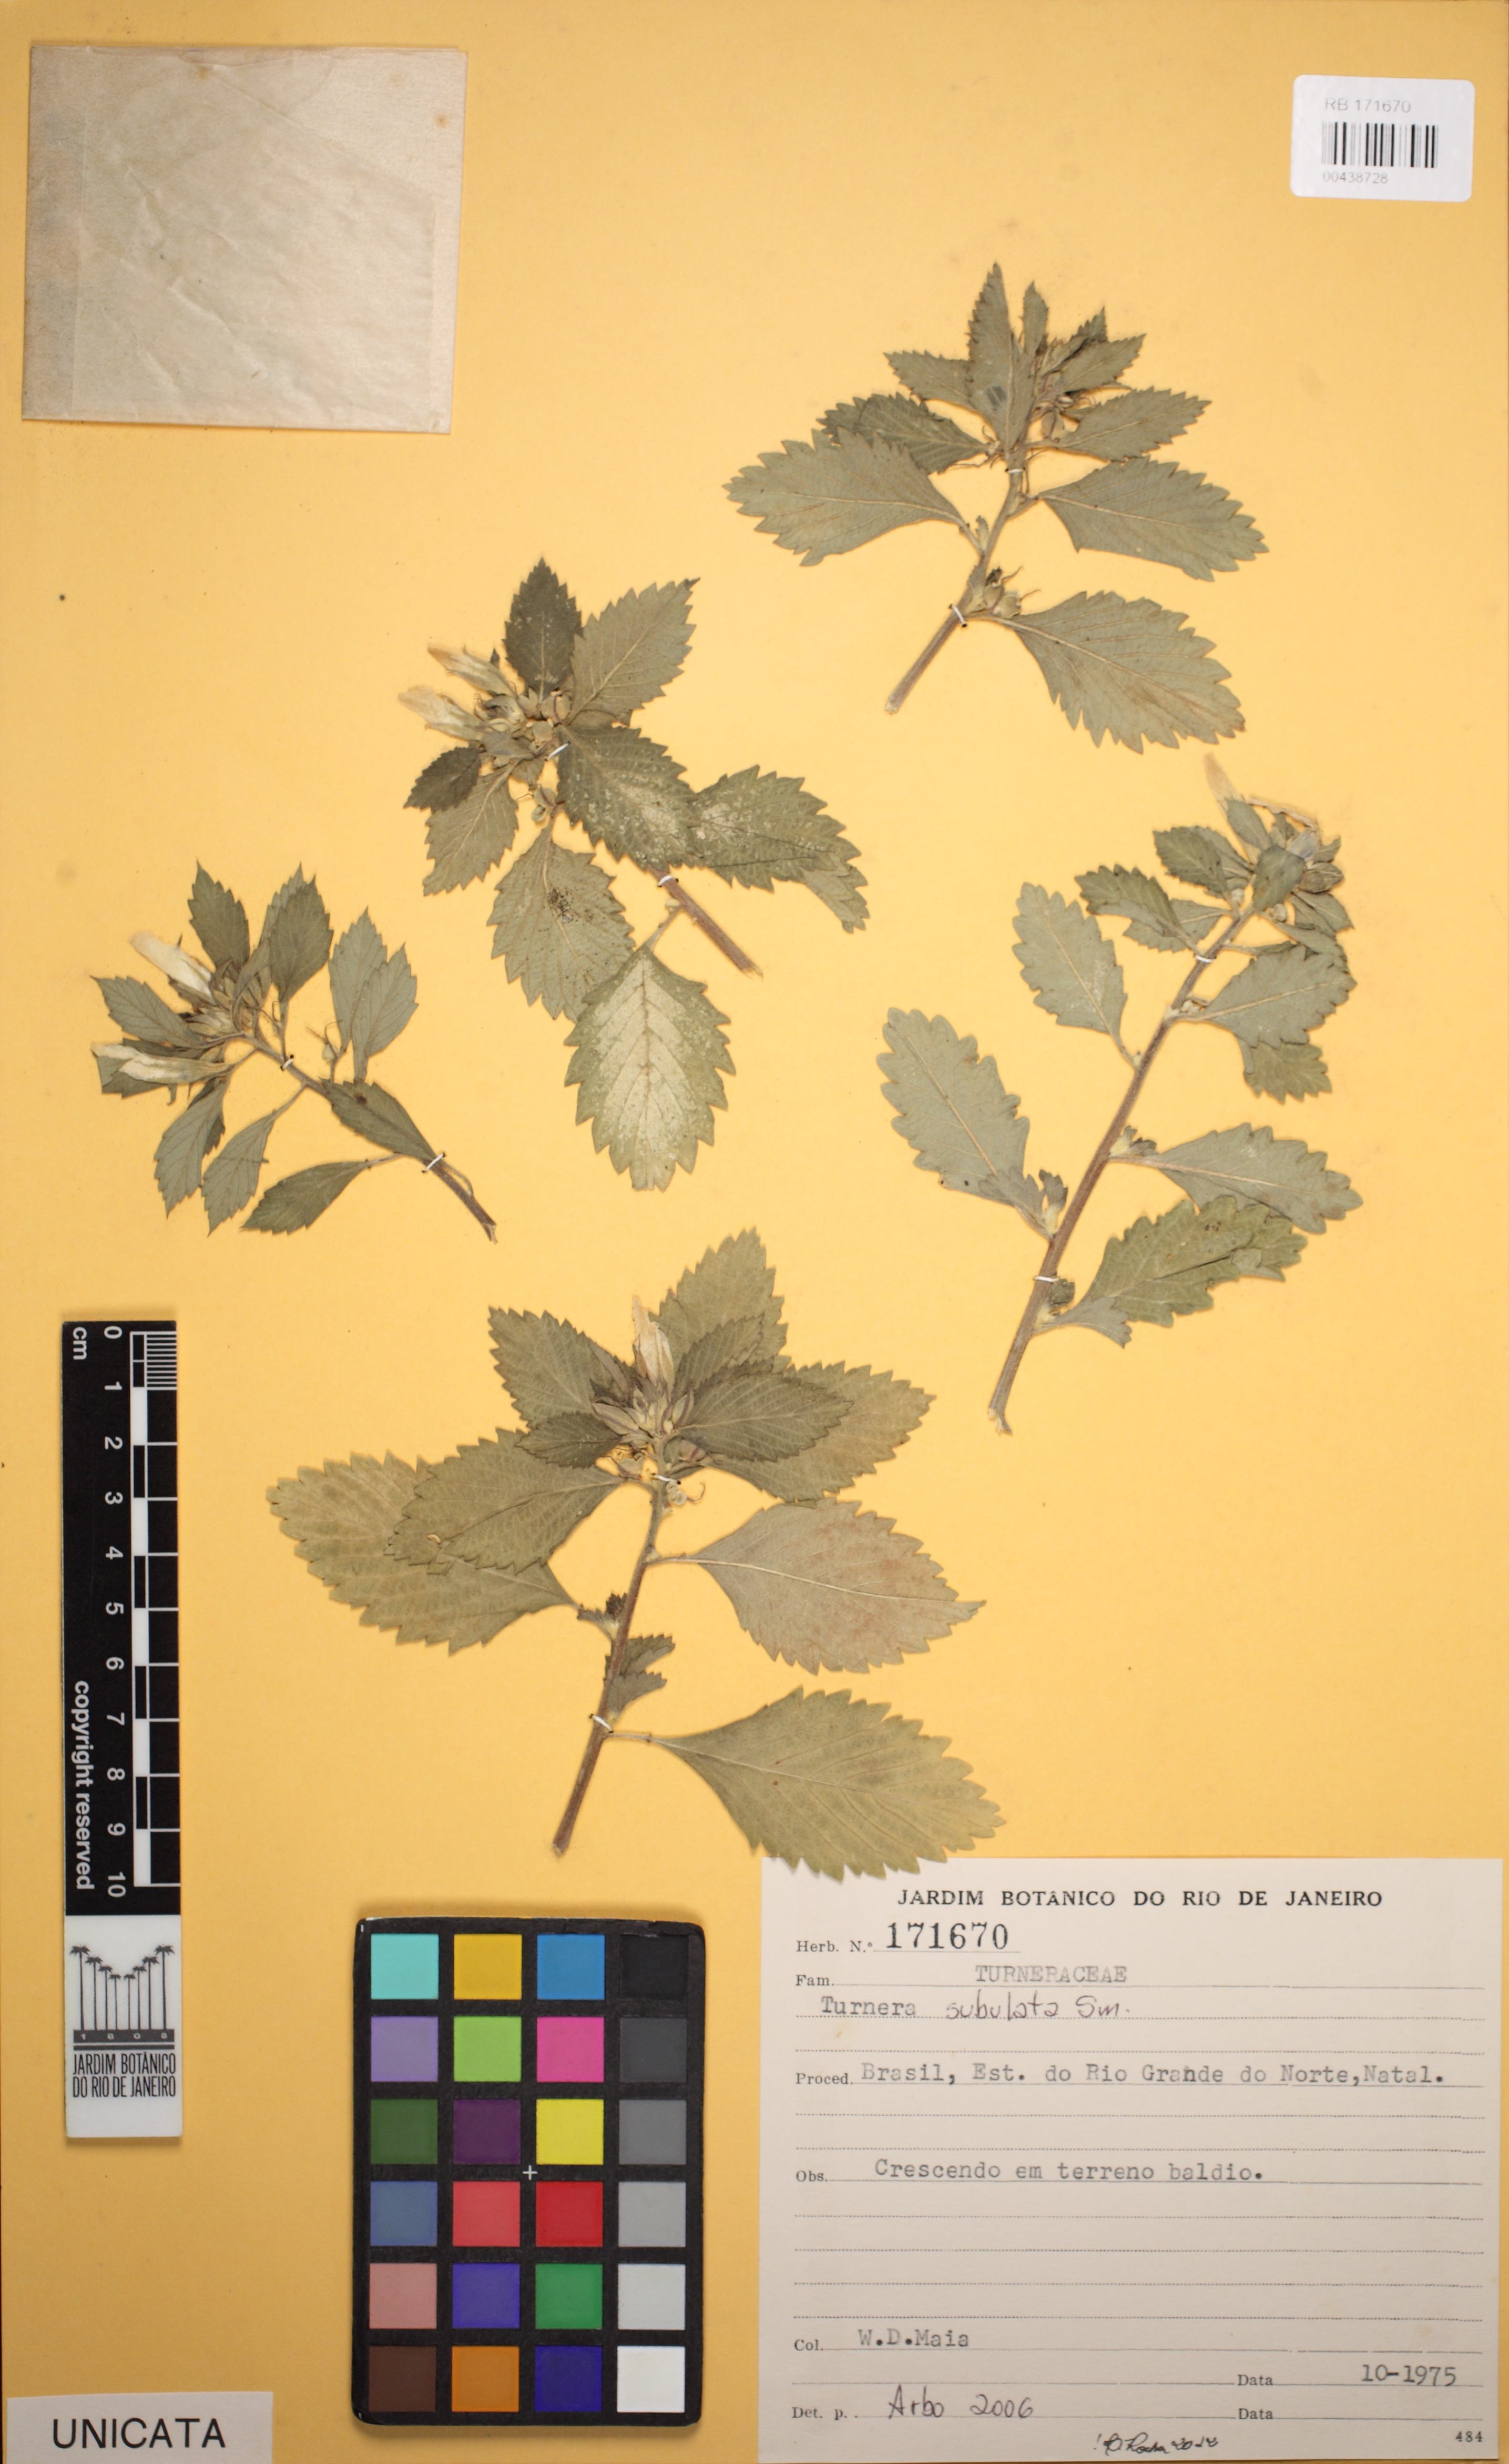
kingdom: Plantae
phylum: Tracheophyta
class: Magnoliopsida
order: Malpighiales
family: Turneraceae
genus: Turnera
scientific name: Turnera subulata
